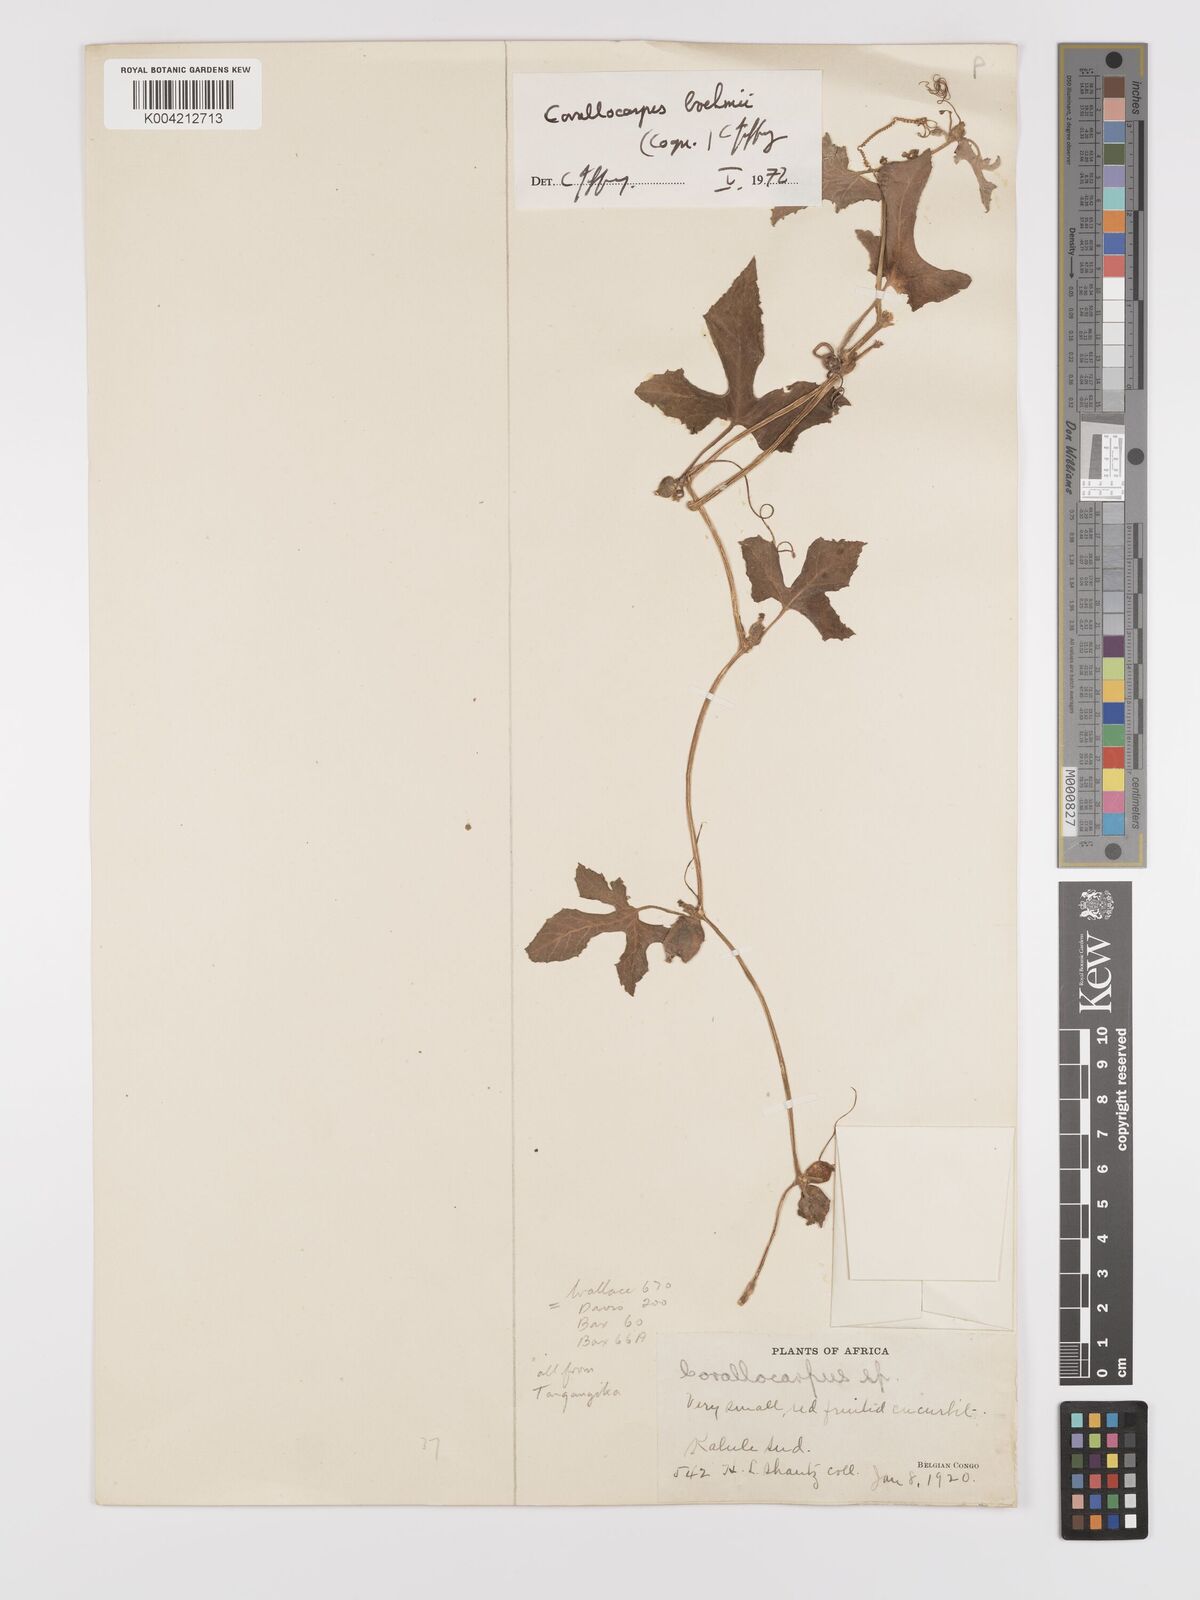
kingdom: Plantae
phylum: Tracheophyta
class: Magnoliopsida
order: Cucurbitales
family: Cucurbitaceae
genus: Corallocarpus
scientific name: Corallocarpus boehmii
